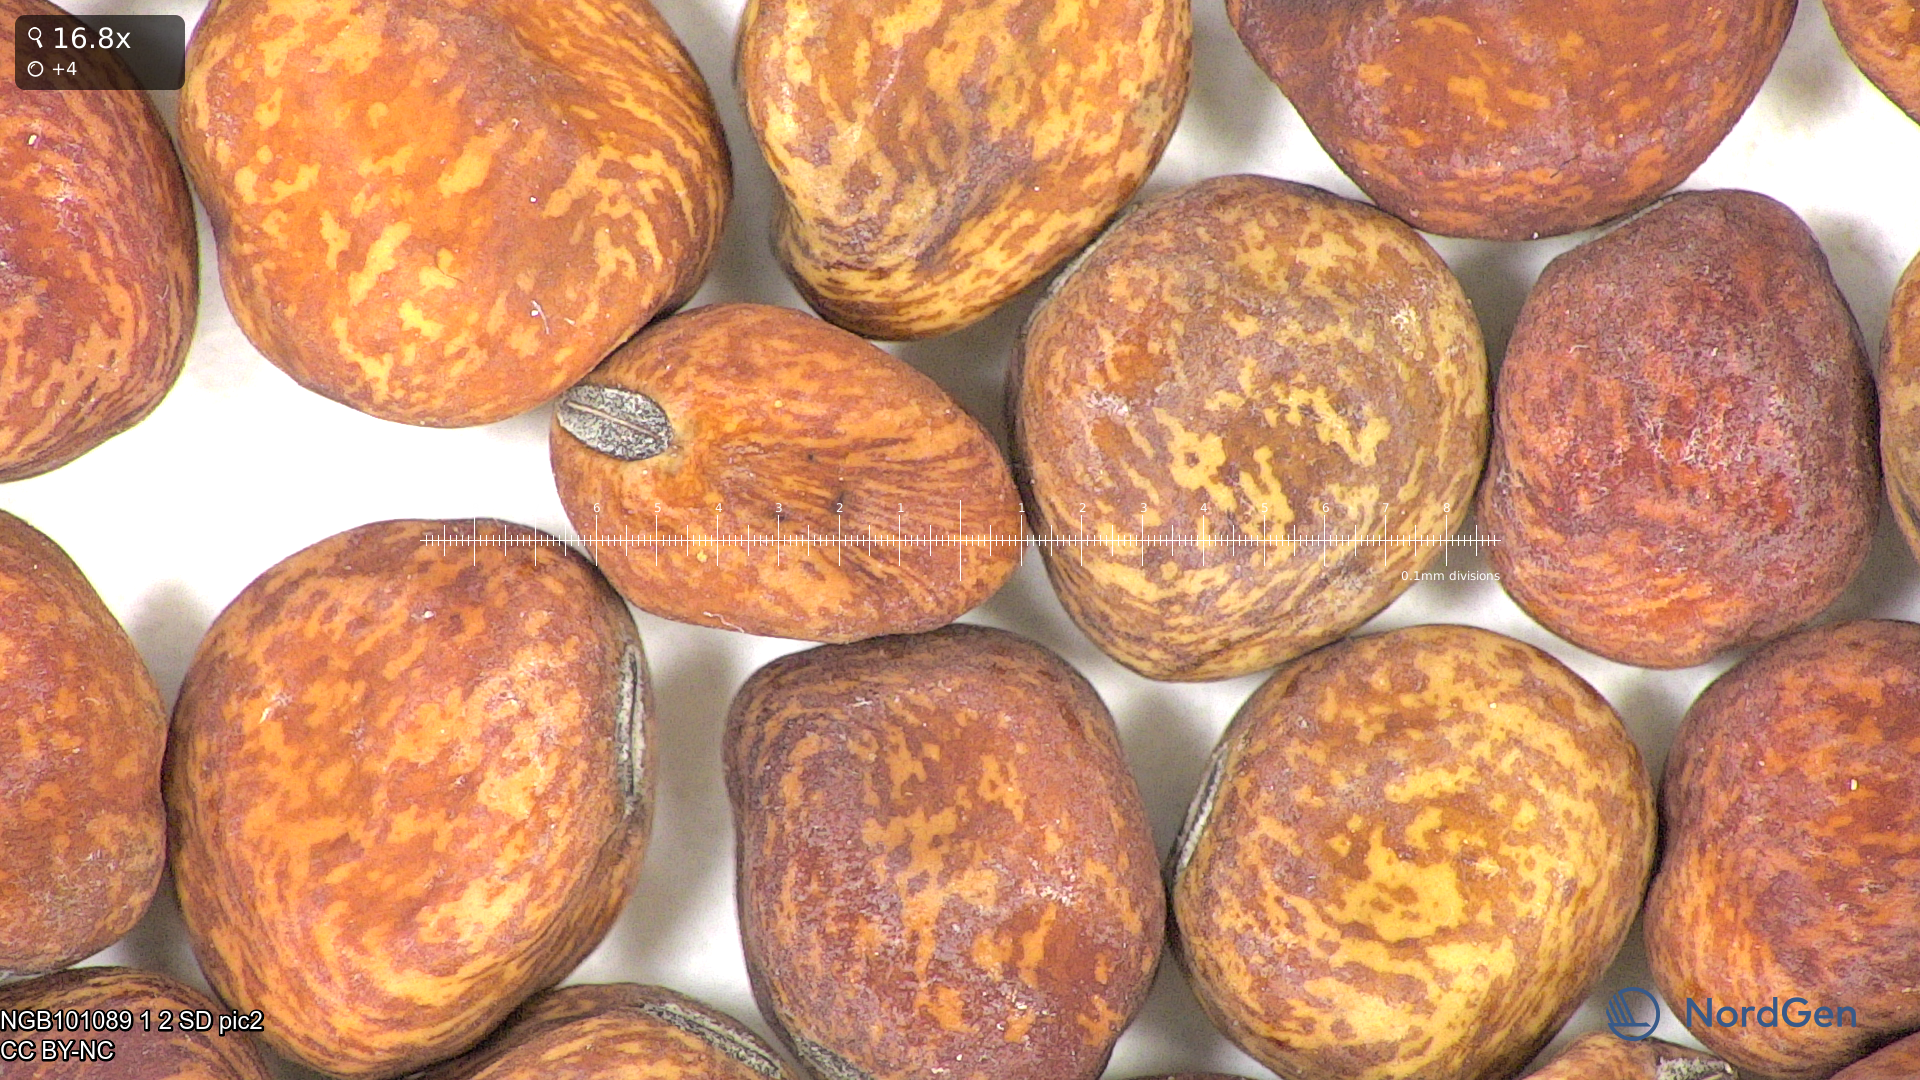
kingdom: Plantae
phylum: Tracheophyta
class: Magnoliopsida
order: Fabales
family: Fabaceae
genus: Lathyrus
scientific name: Lathyrus oleraceus
